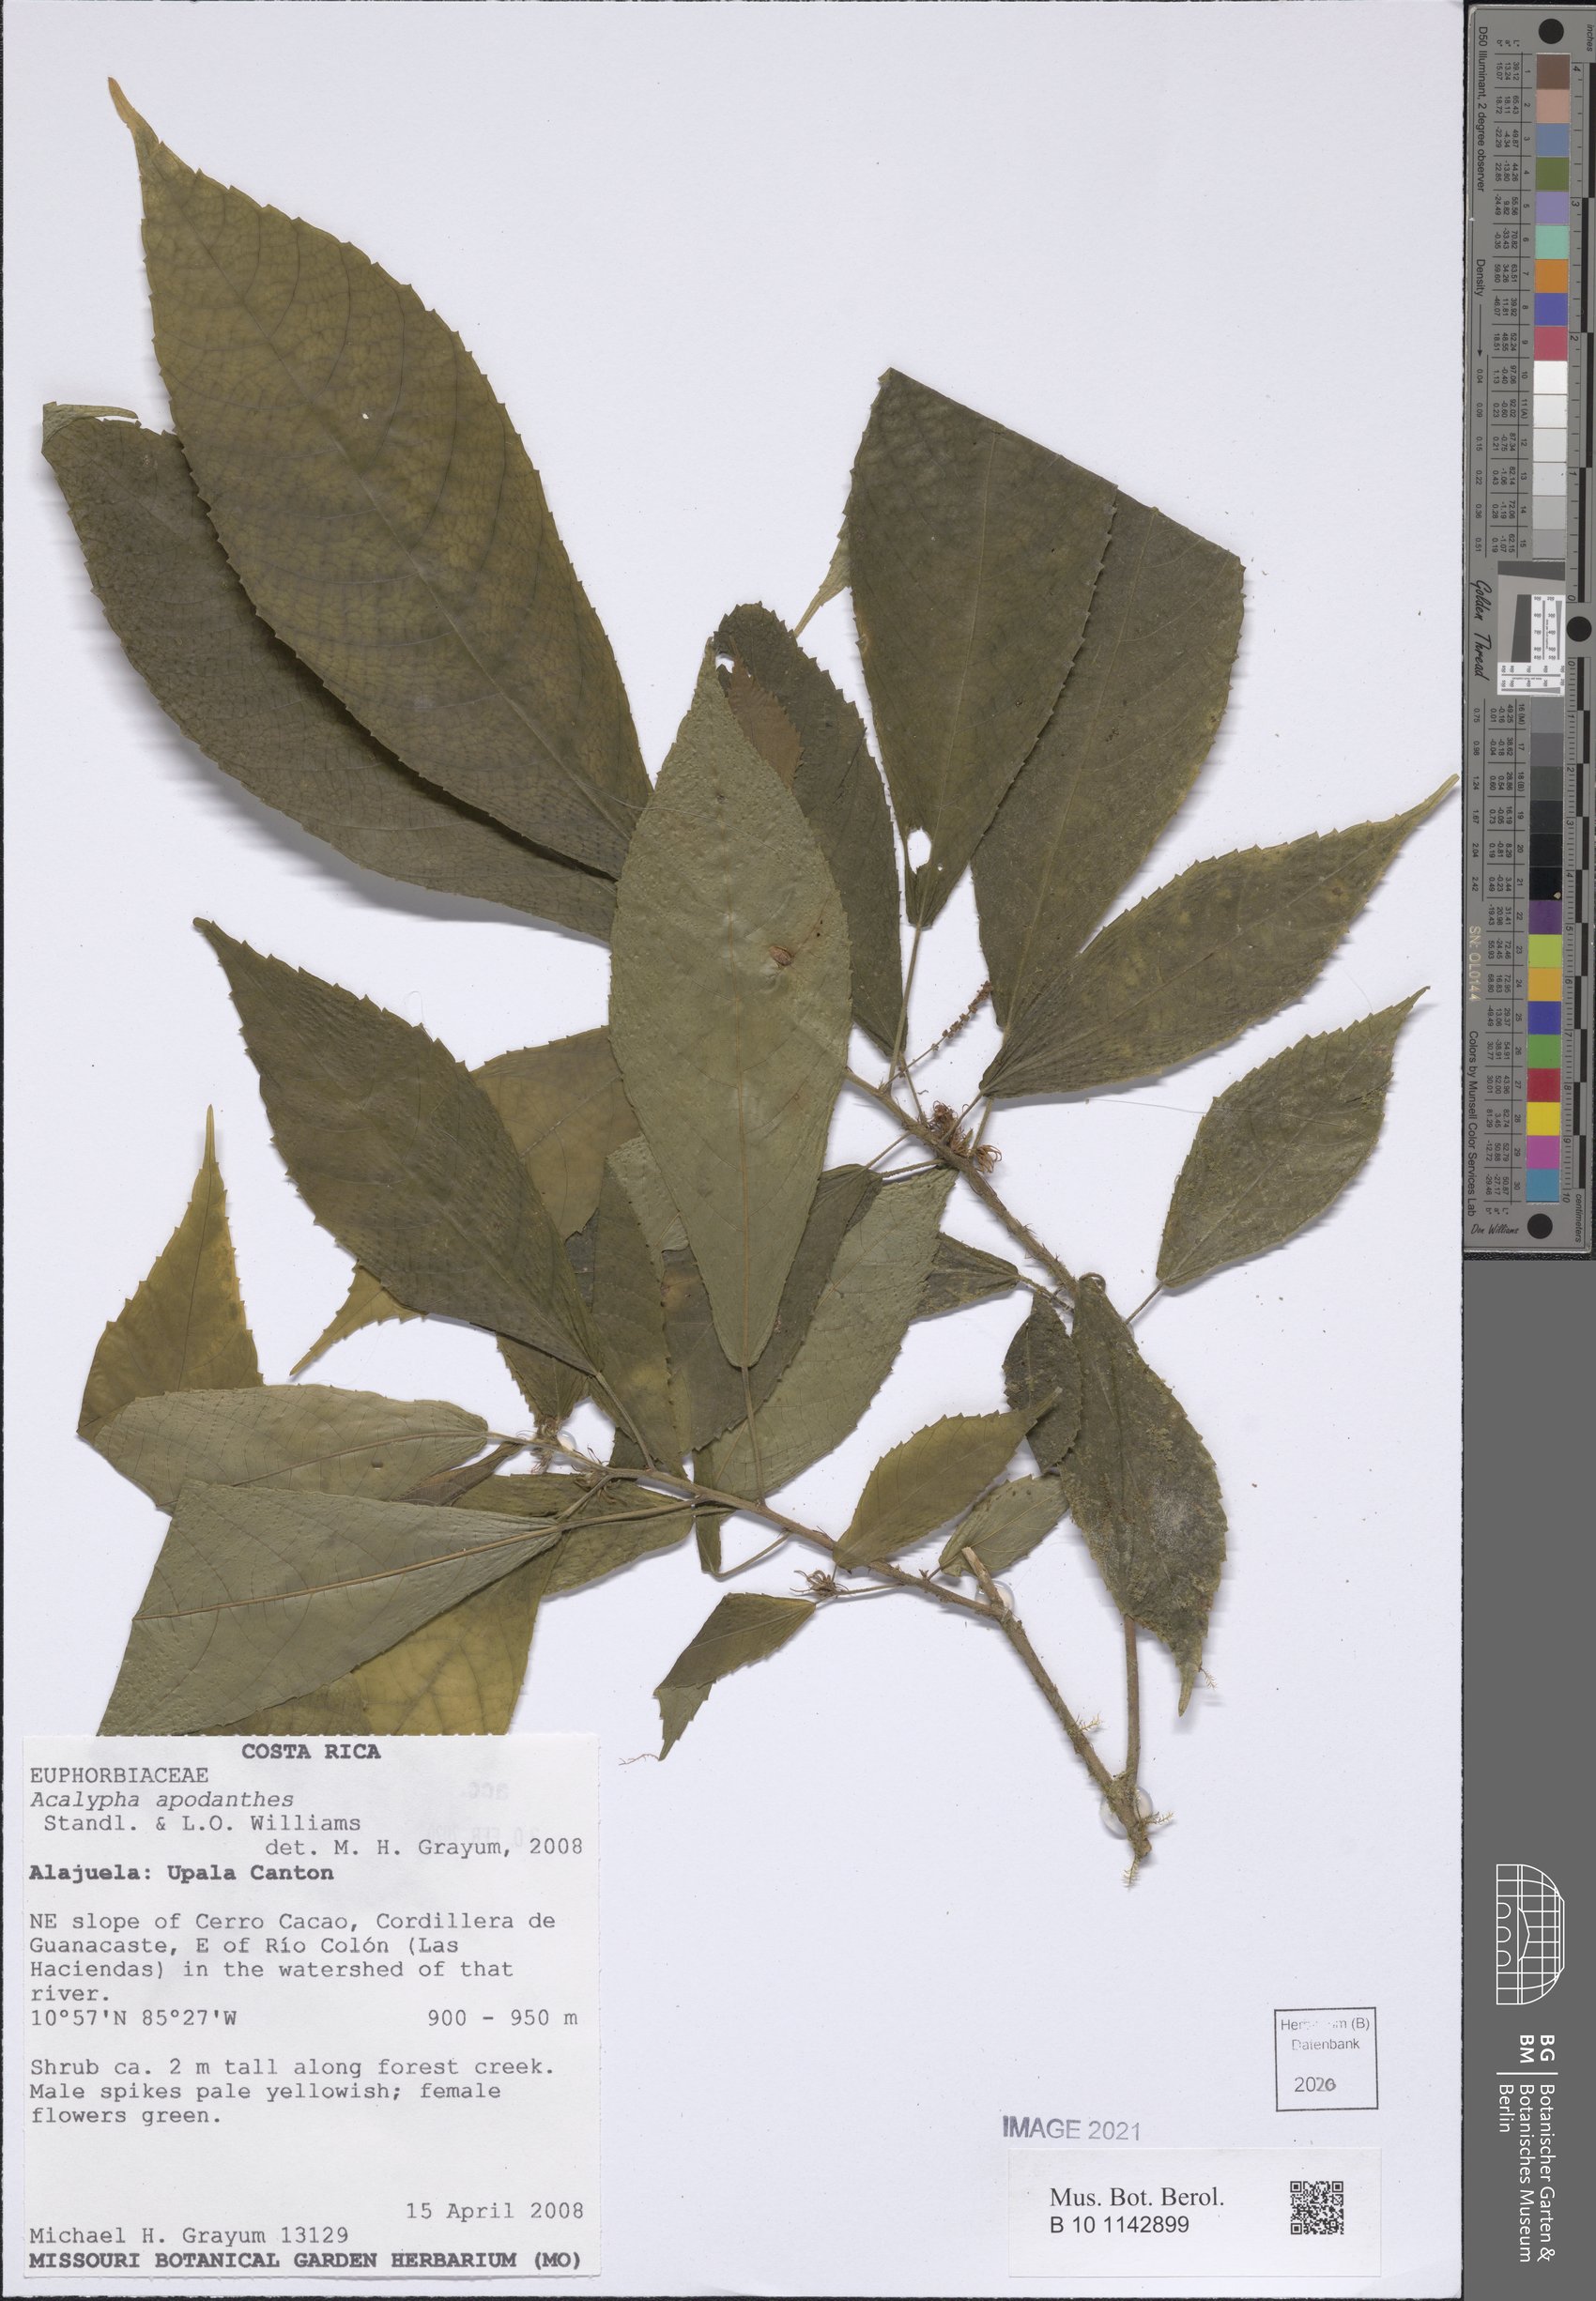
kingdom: Plantae
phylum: Tracheophyta
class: Magnoliopsida
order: Malpighiales
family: Euphorbiaceae
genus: Acalypha
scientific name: Acalypha apodanthes
